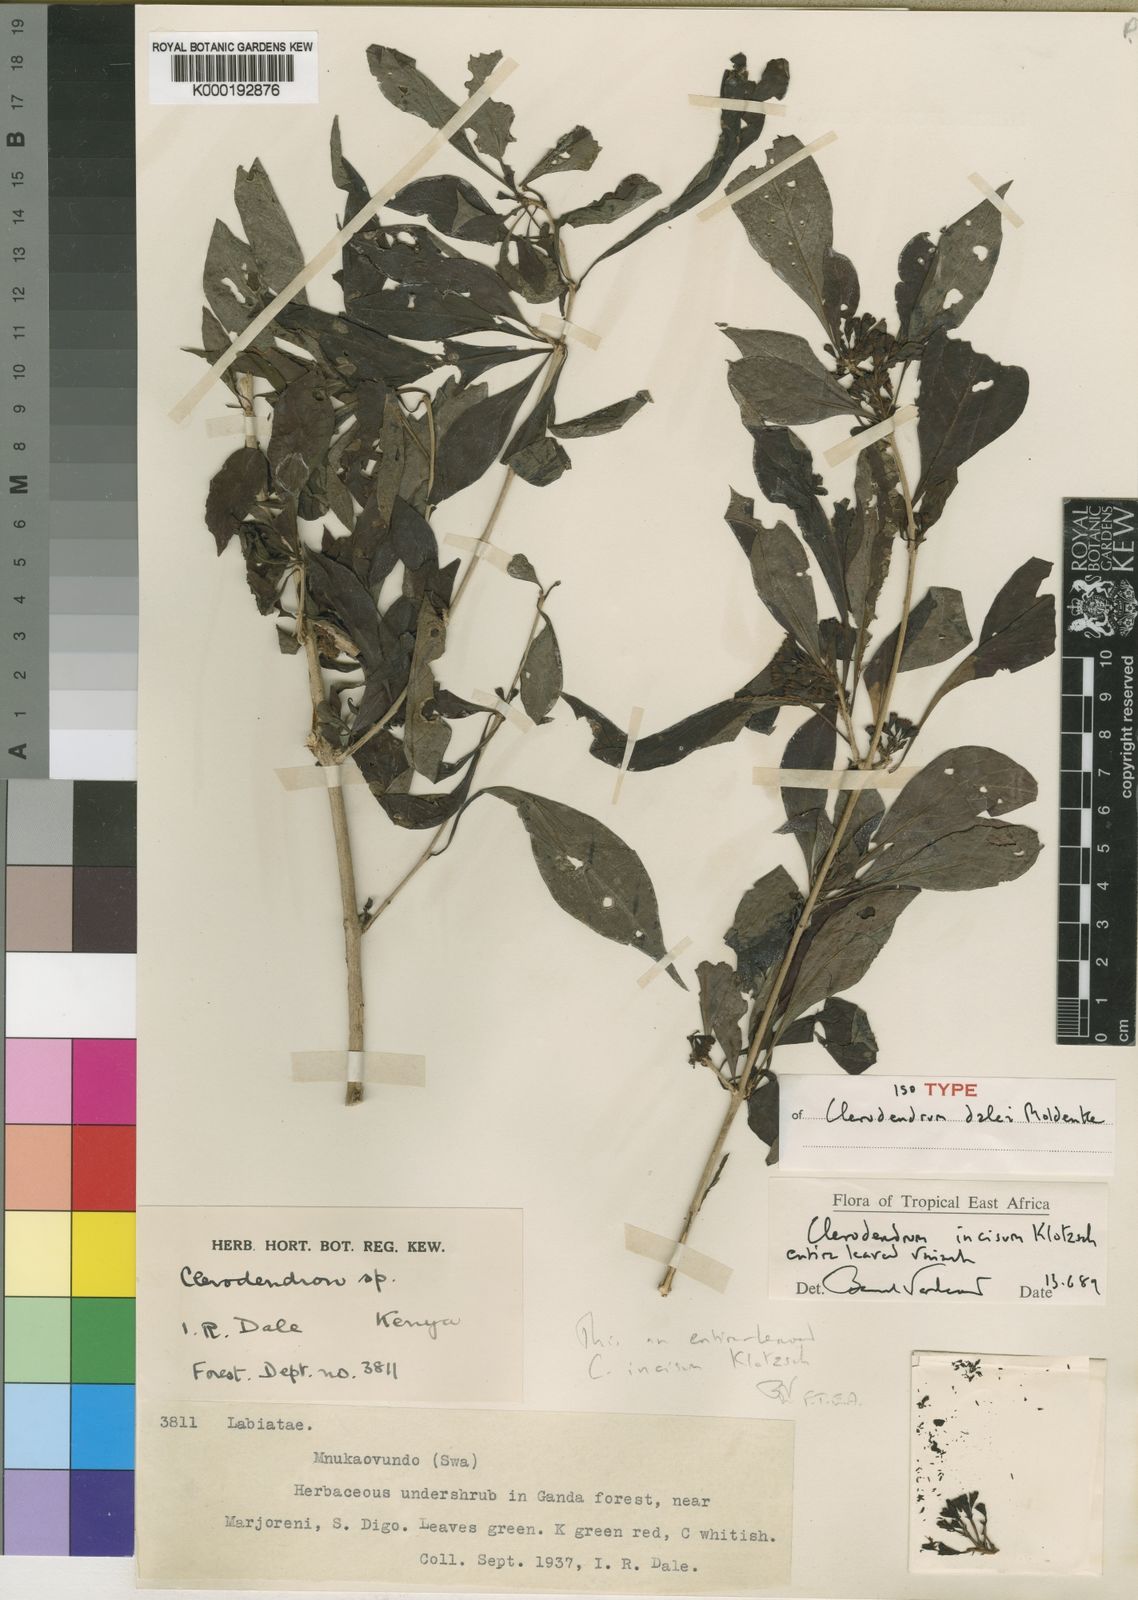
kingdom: Plantae
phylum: Tracheophyta
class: Magnoliopsida
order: Lamiales
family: Lamiaceae
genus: Rotheca
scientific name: Rotheca microphylla
